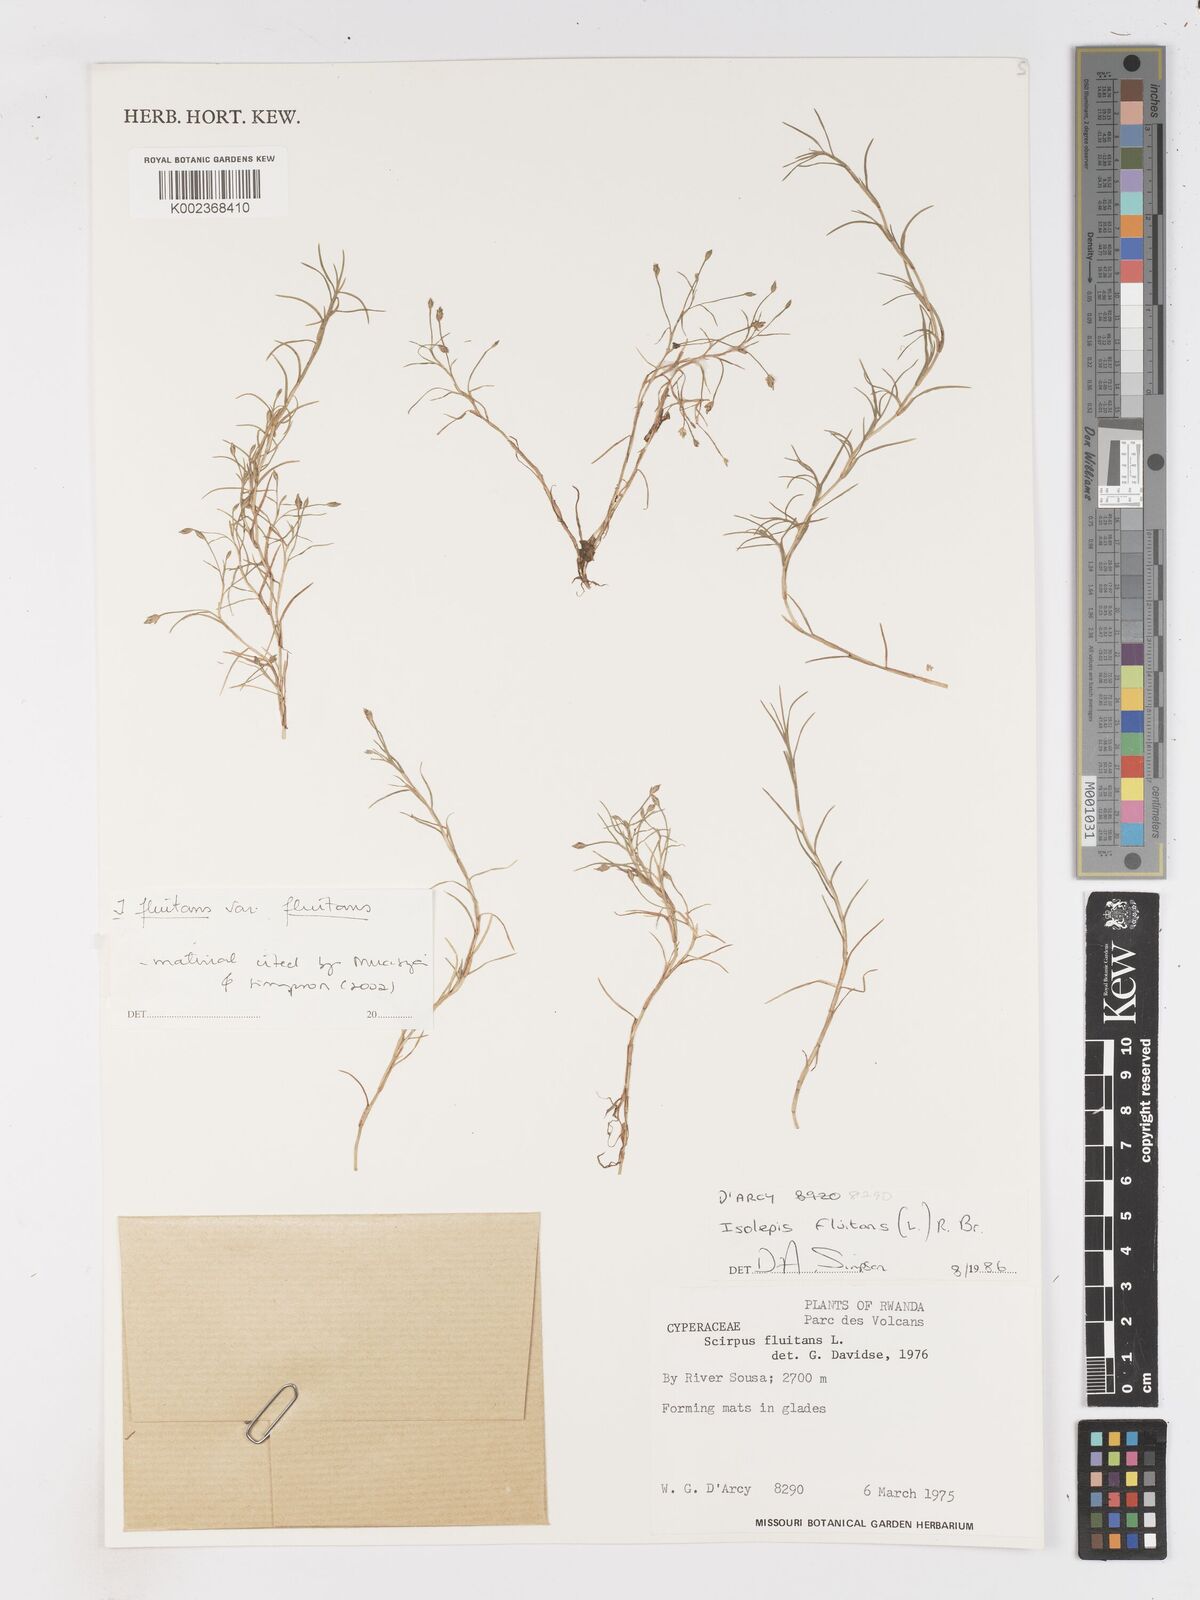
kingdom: Plantae
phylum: Tracheophyta
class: Liliopsida
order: Poales
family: Cyperaceae
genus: Isolepis
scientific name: Isolepis fluitans
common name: Floating club-rush
